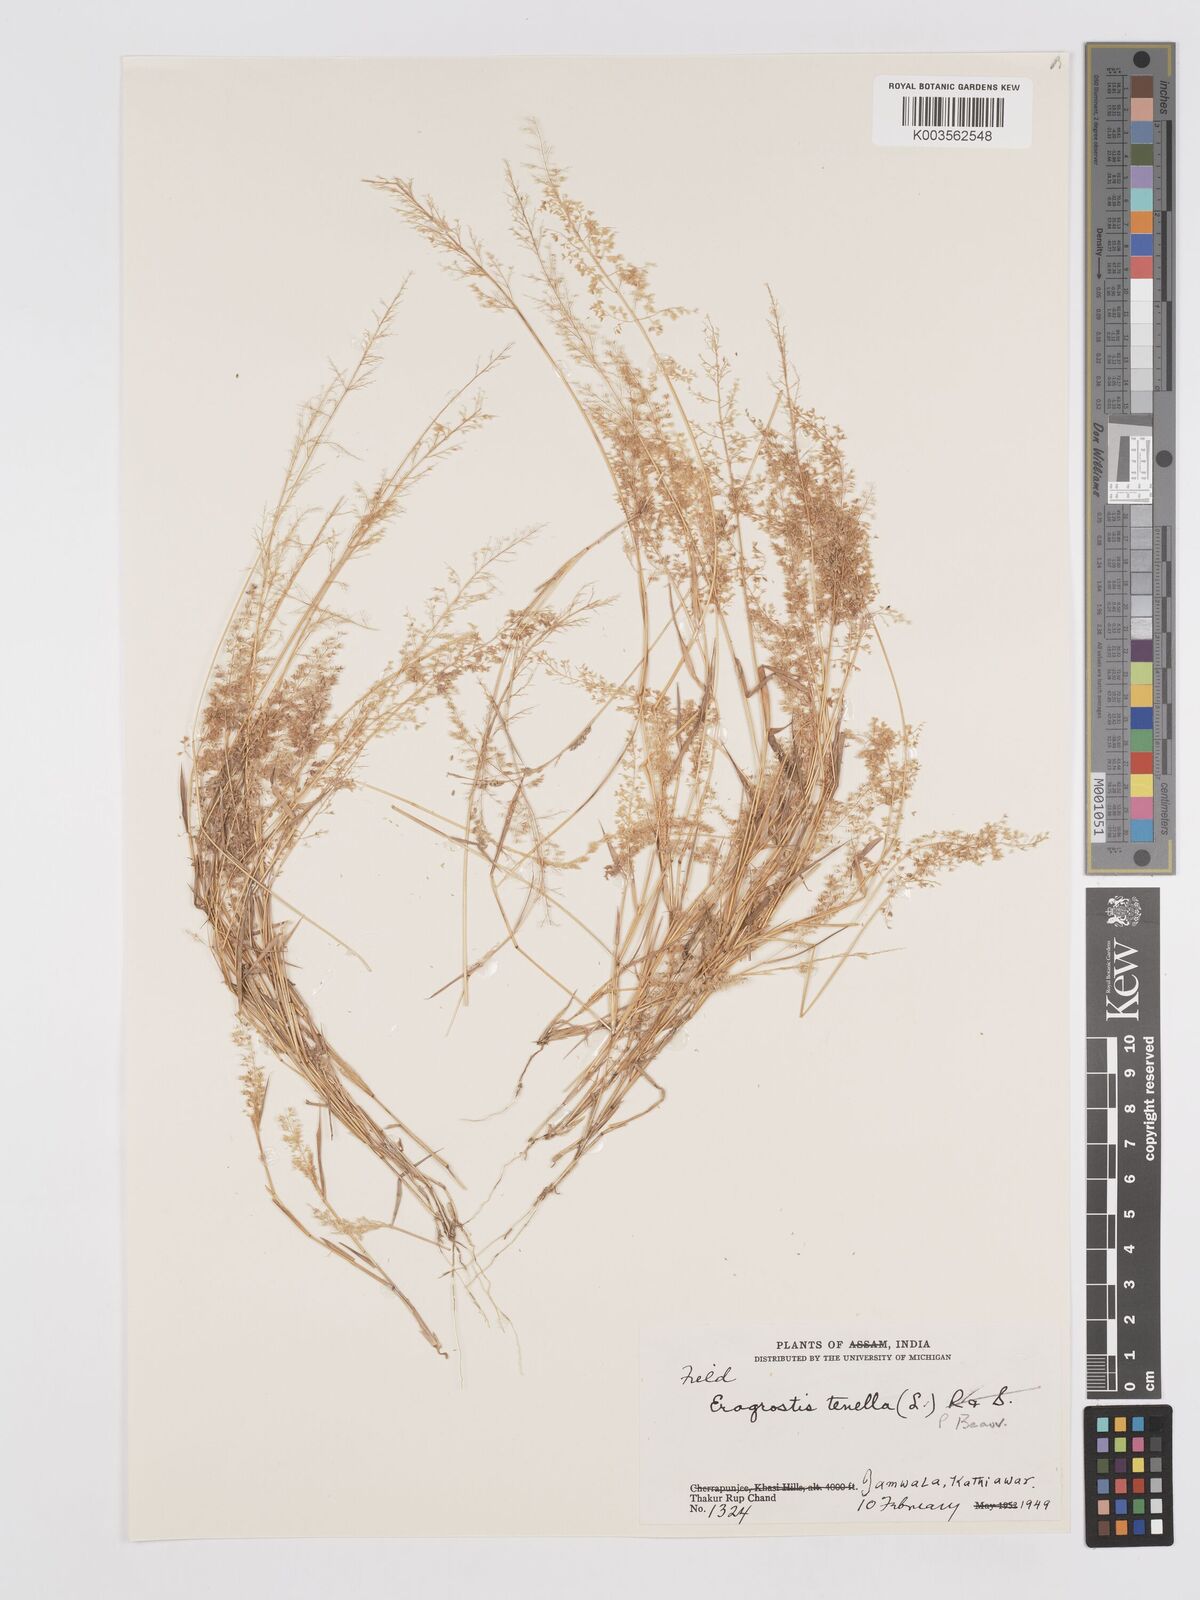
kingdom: Plantae
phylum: Tracheophyta
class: Liliopsida
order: Poales
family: Poaceae
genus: Eragrostis
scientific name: Eragrostis tenella
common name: Japanese lovegrass
